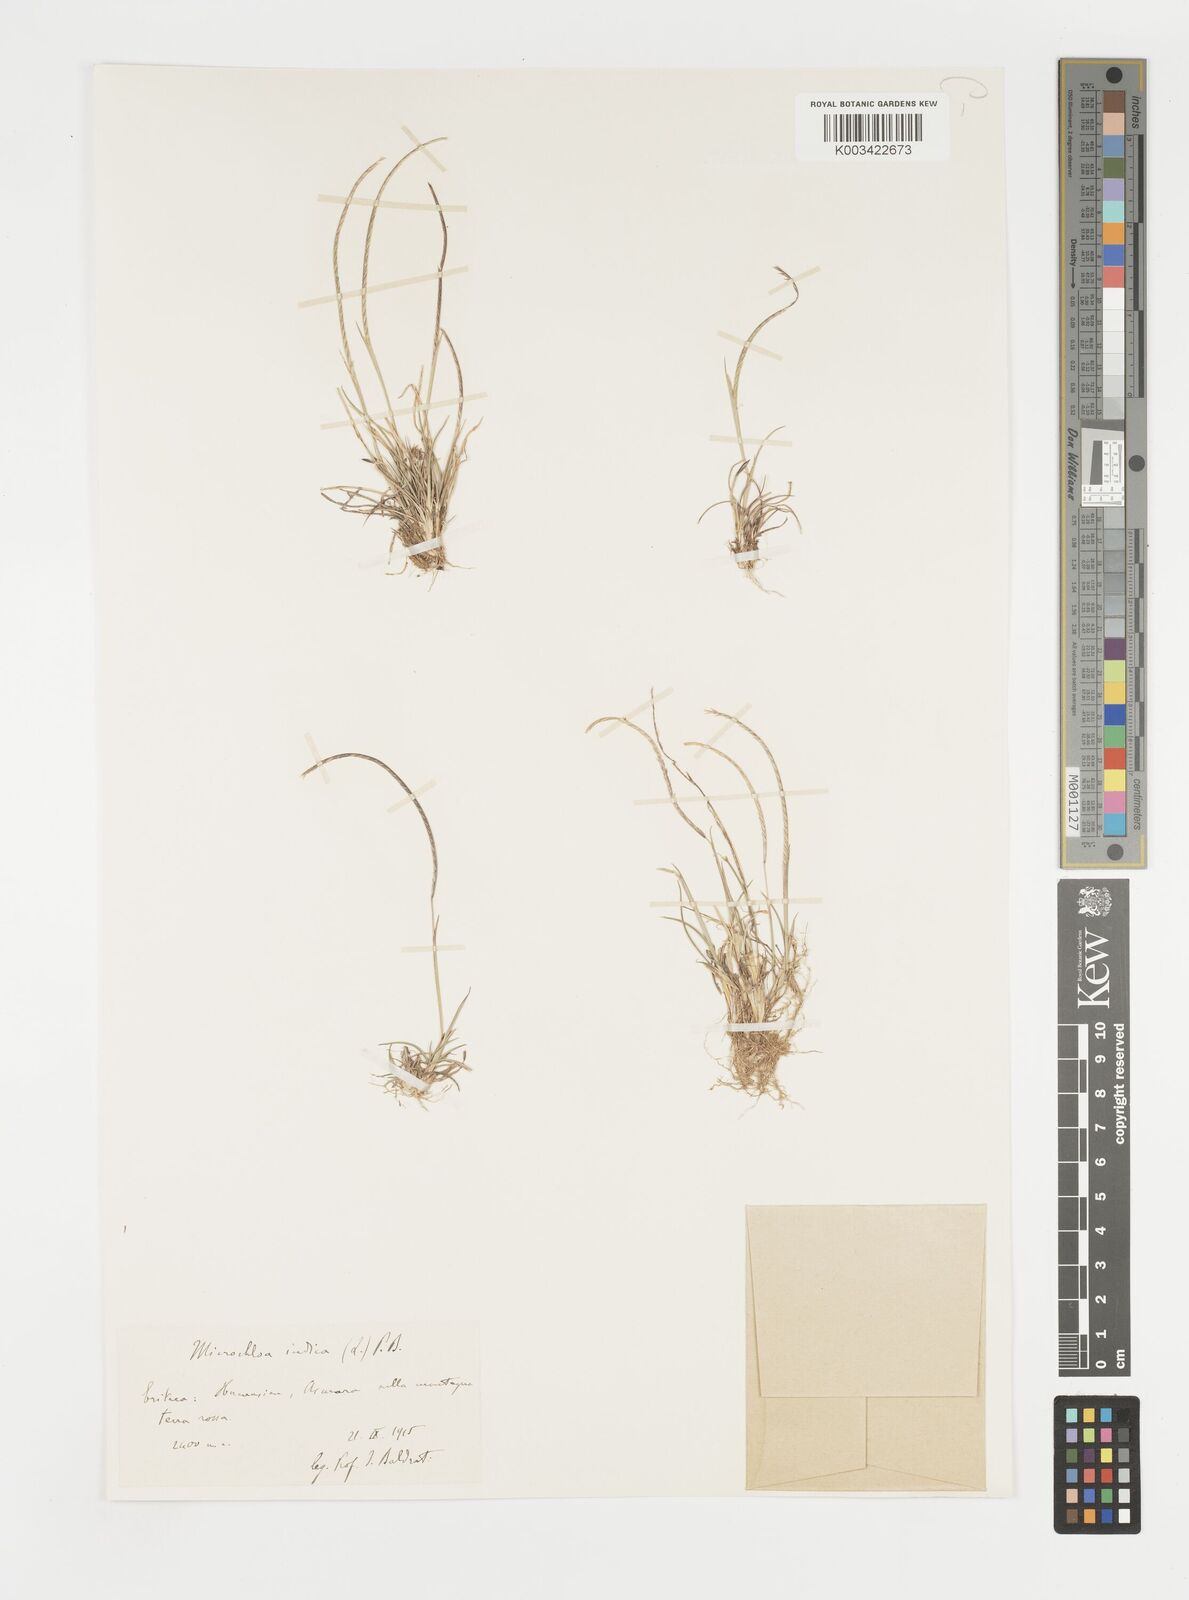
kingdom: Plantae
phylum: Tracheophyta
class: Liliopsida
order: Poales
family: Poaceae
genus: Microchloa
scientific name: Microchloa kunthii
